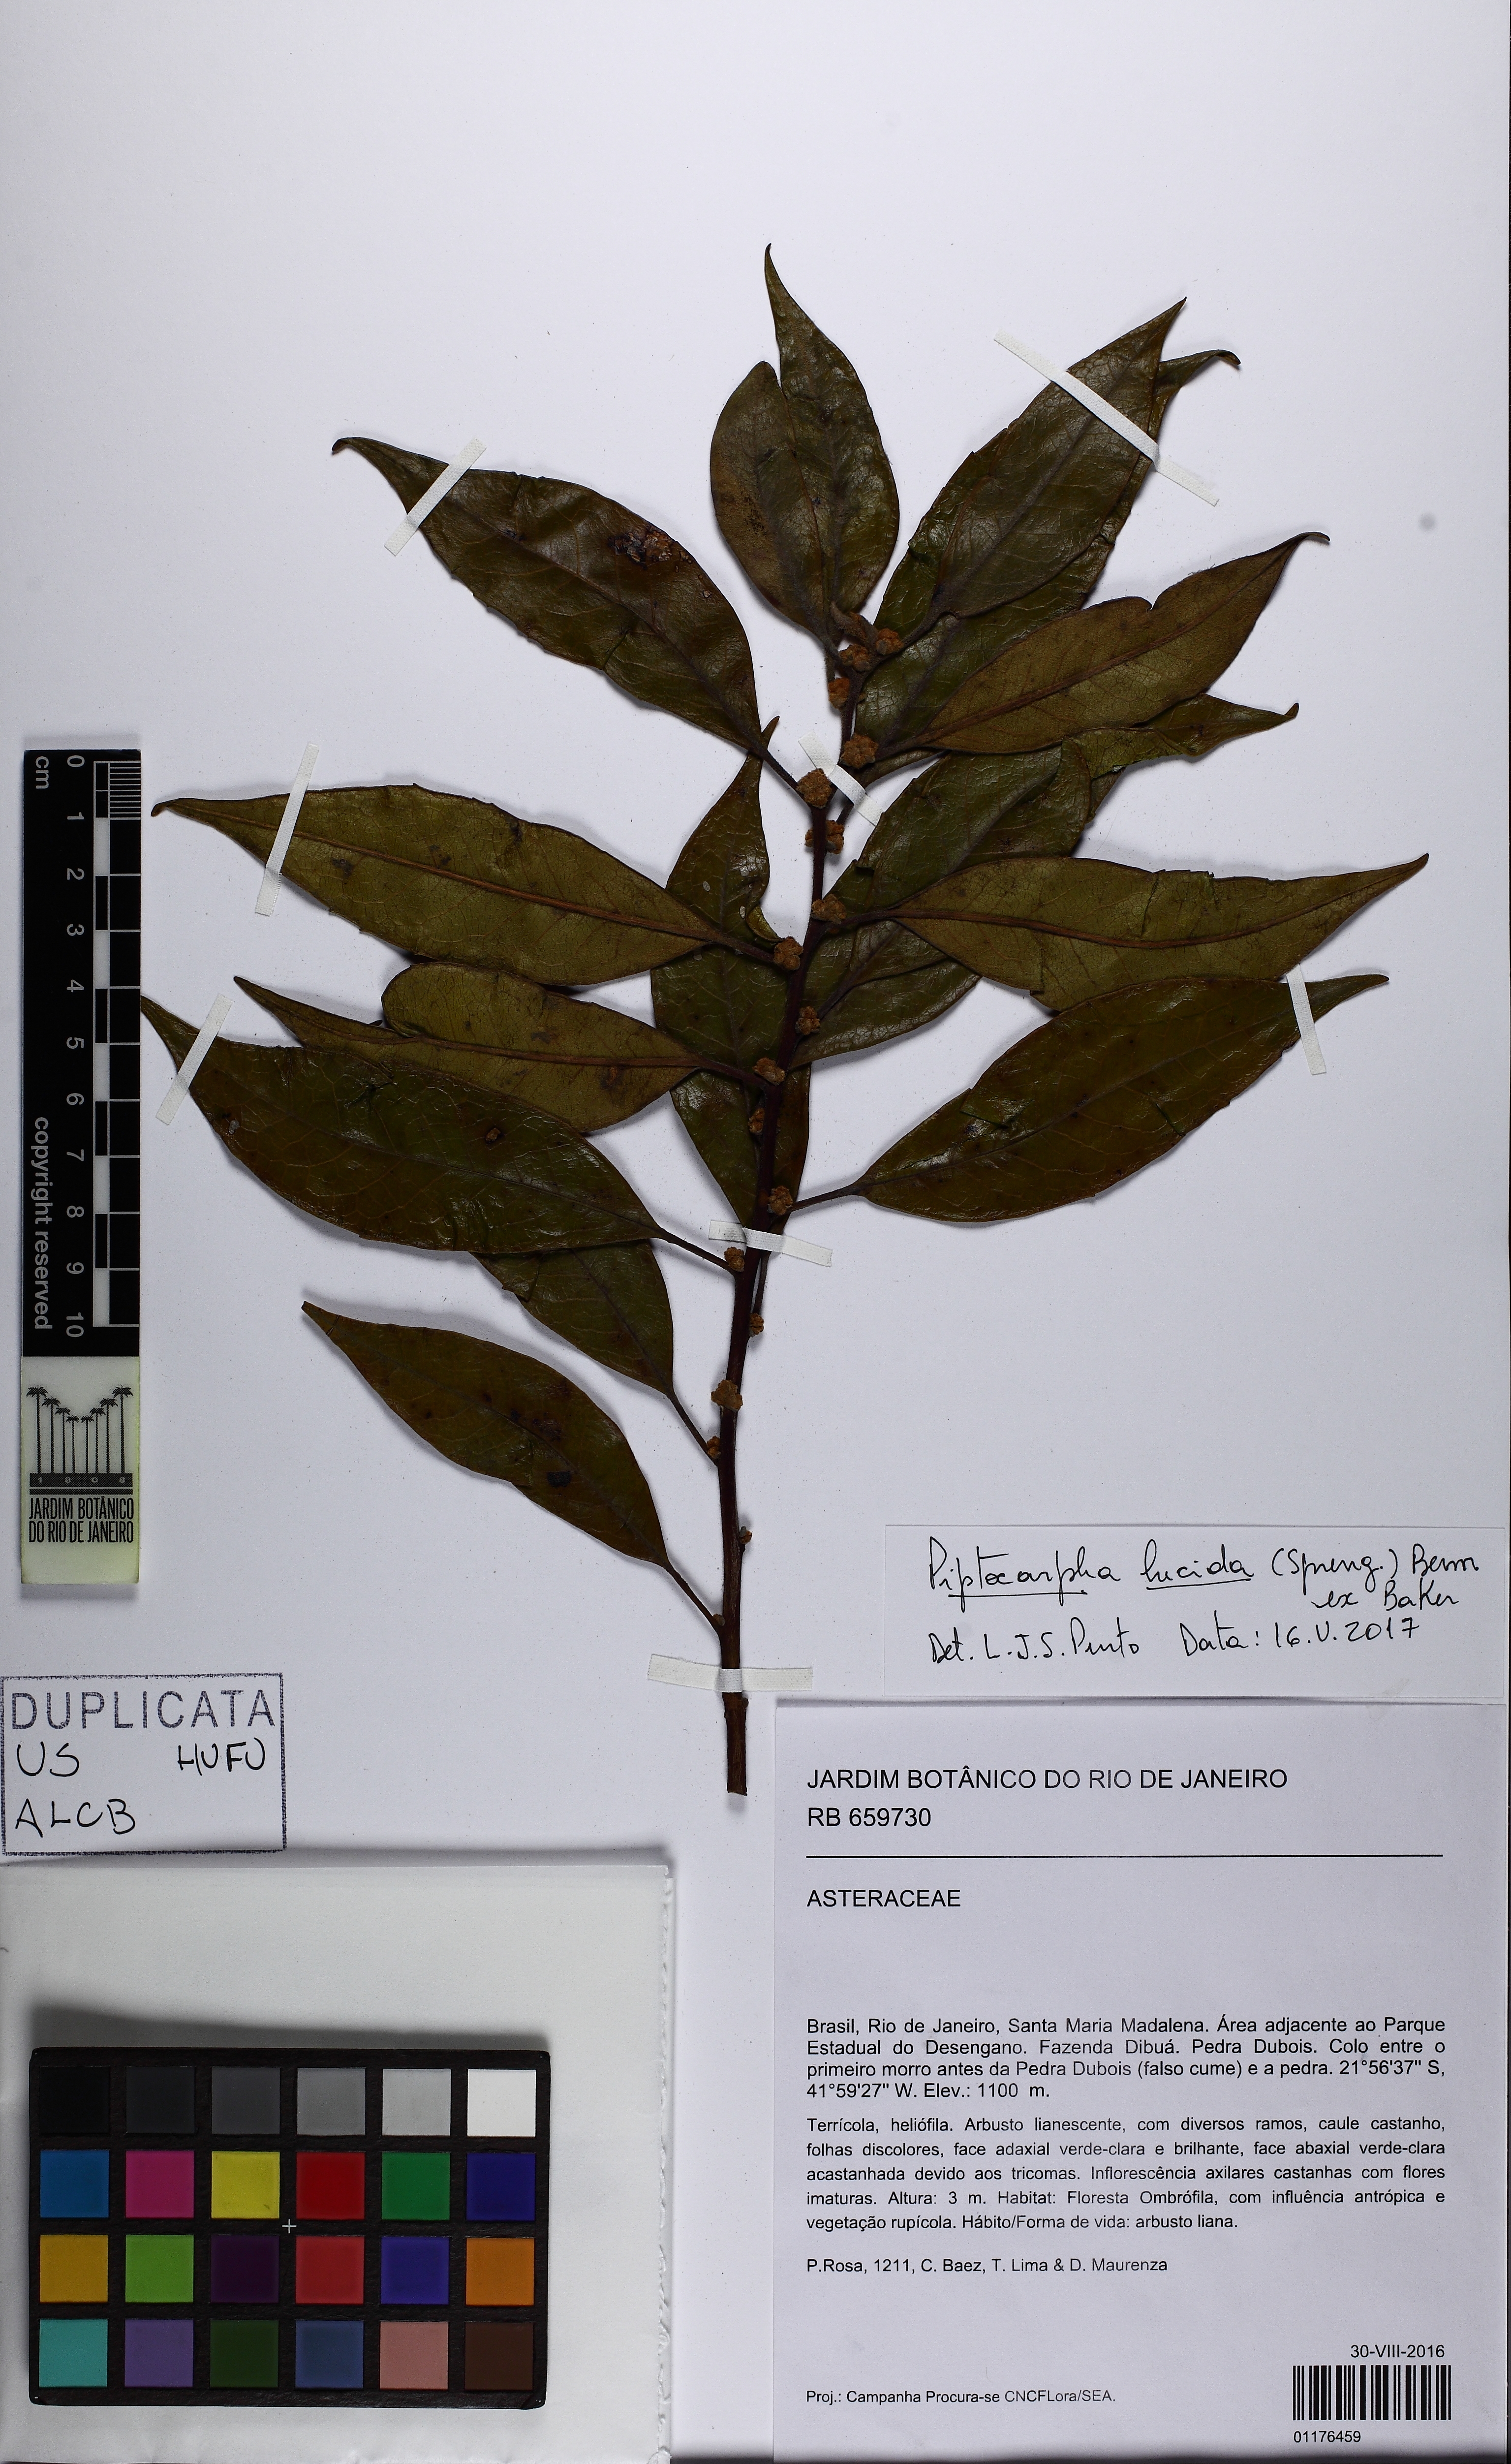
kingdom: Plantae
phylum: Tracheophyta
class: Magnoliopsida
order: Asterales
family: Asteraceae
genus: Piptocarpha
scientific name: Piptocarpha lucida
